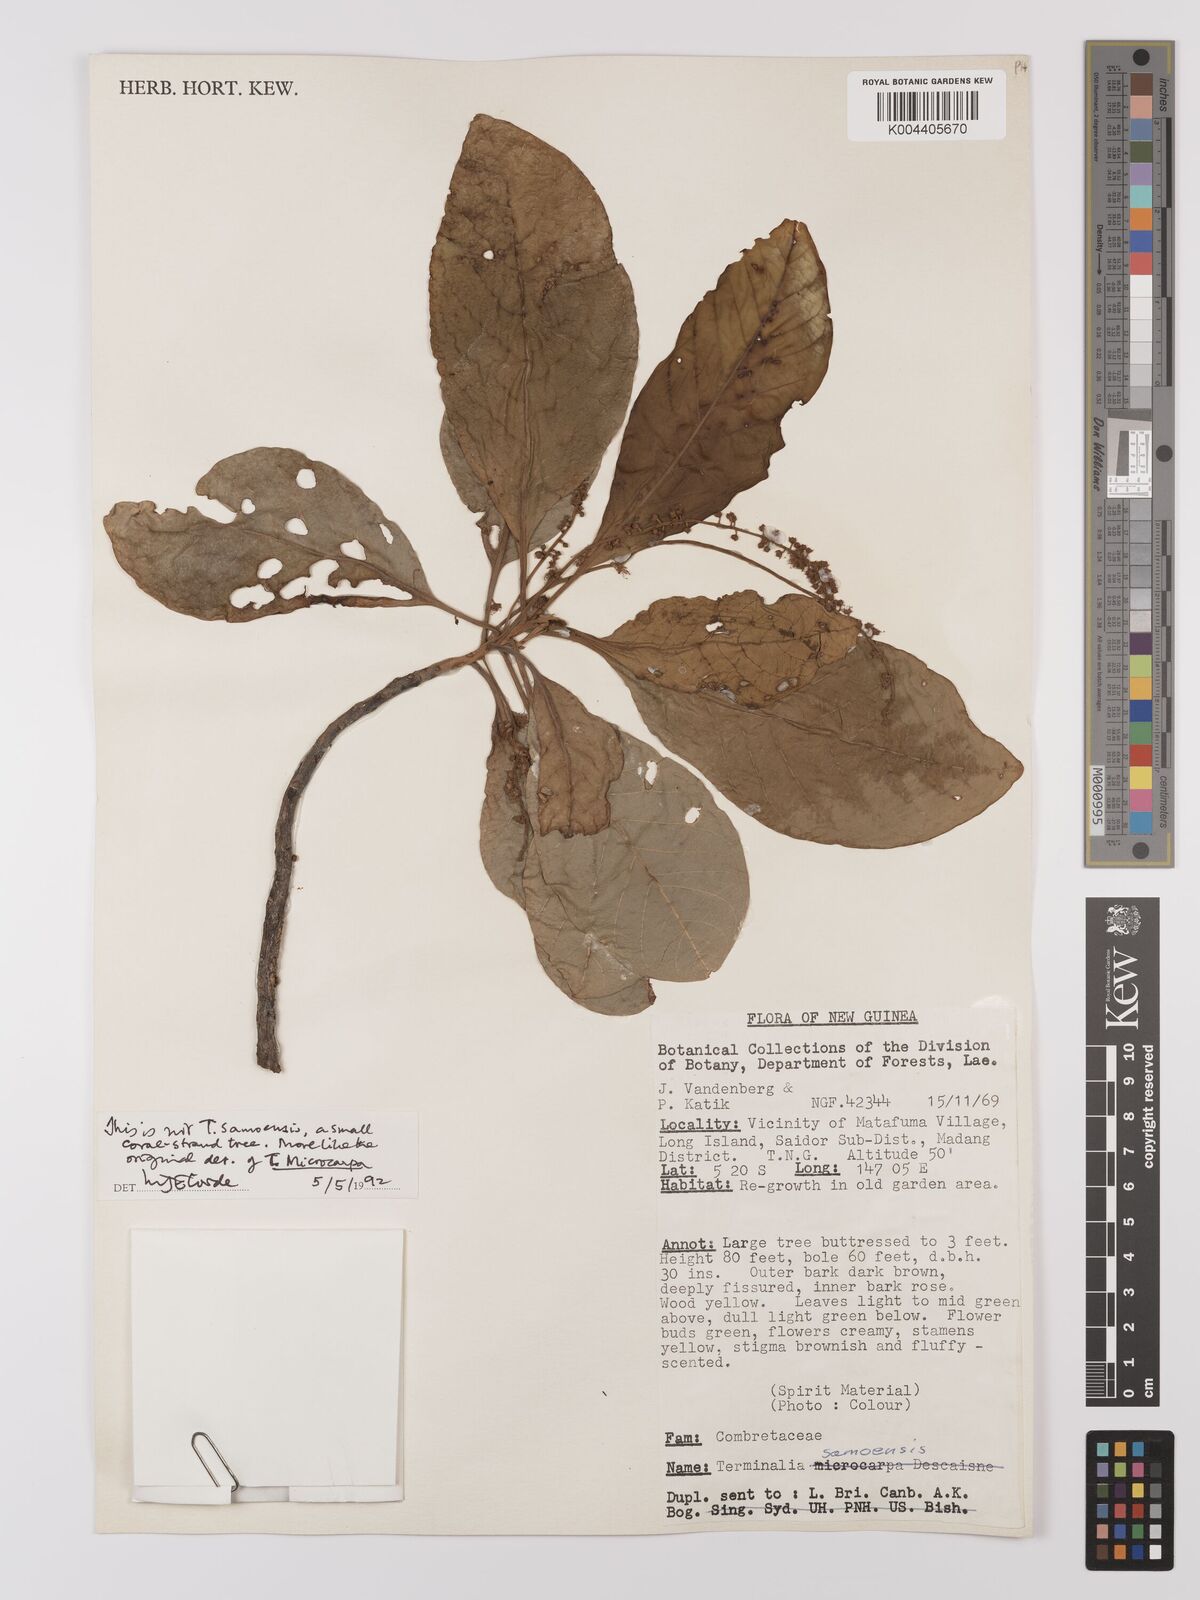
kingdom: Plantae
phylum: Tracheophyta
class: Magnoliopsida
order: Myrtales
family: Combretaceae
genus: Terminalia
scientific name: Terminalia
